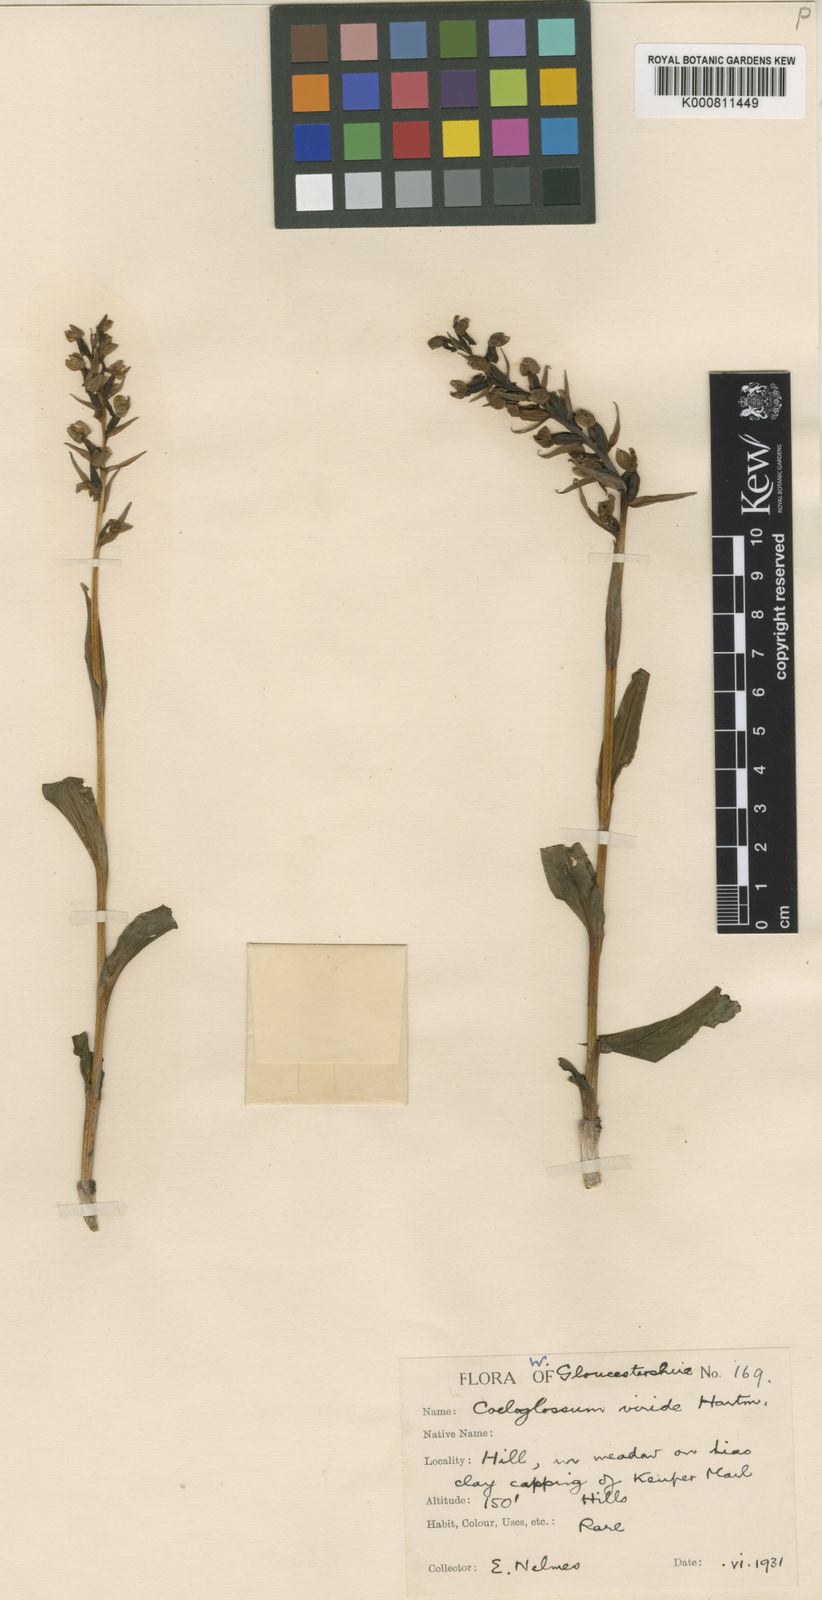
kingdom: Plantae
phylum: Tracheophyta
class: Liliopsida
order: Asparagales
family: Orchidaceae
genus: Dactylorhiza
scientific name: Dactylorhiza viridis
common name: Longbract frog orchid
